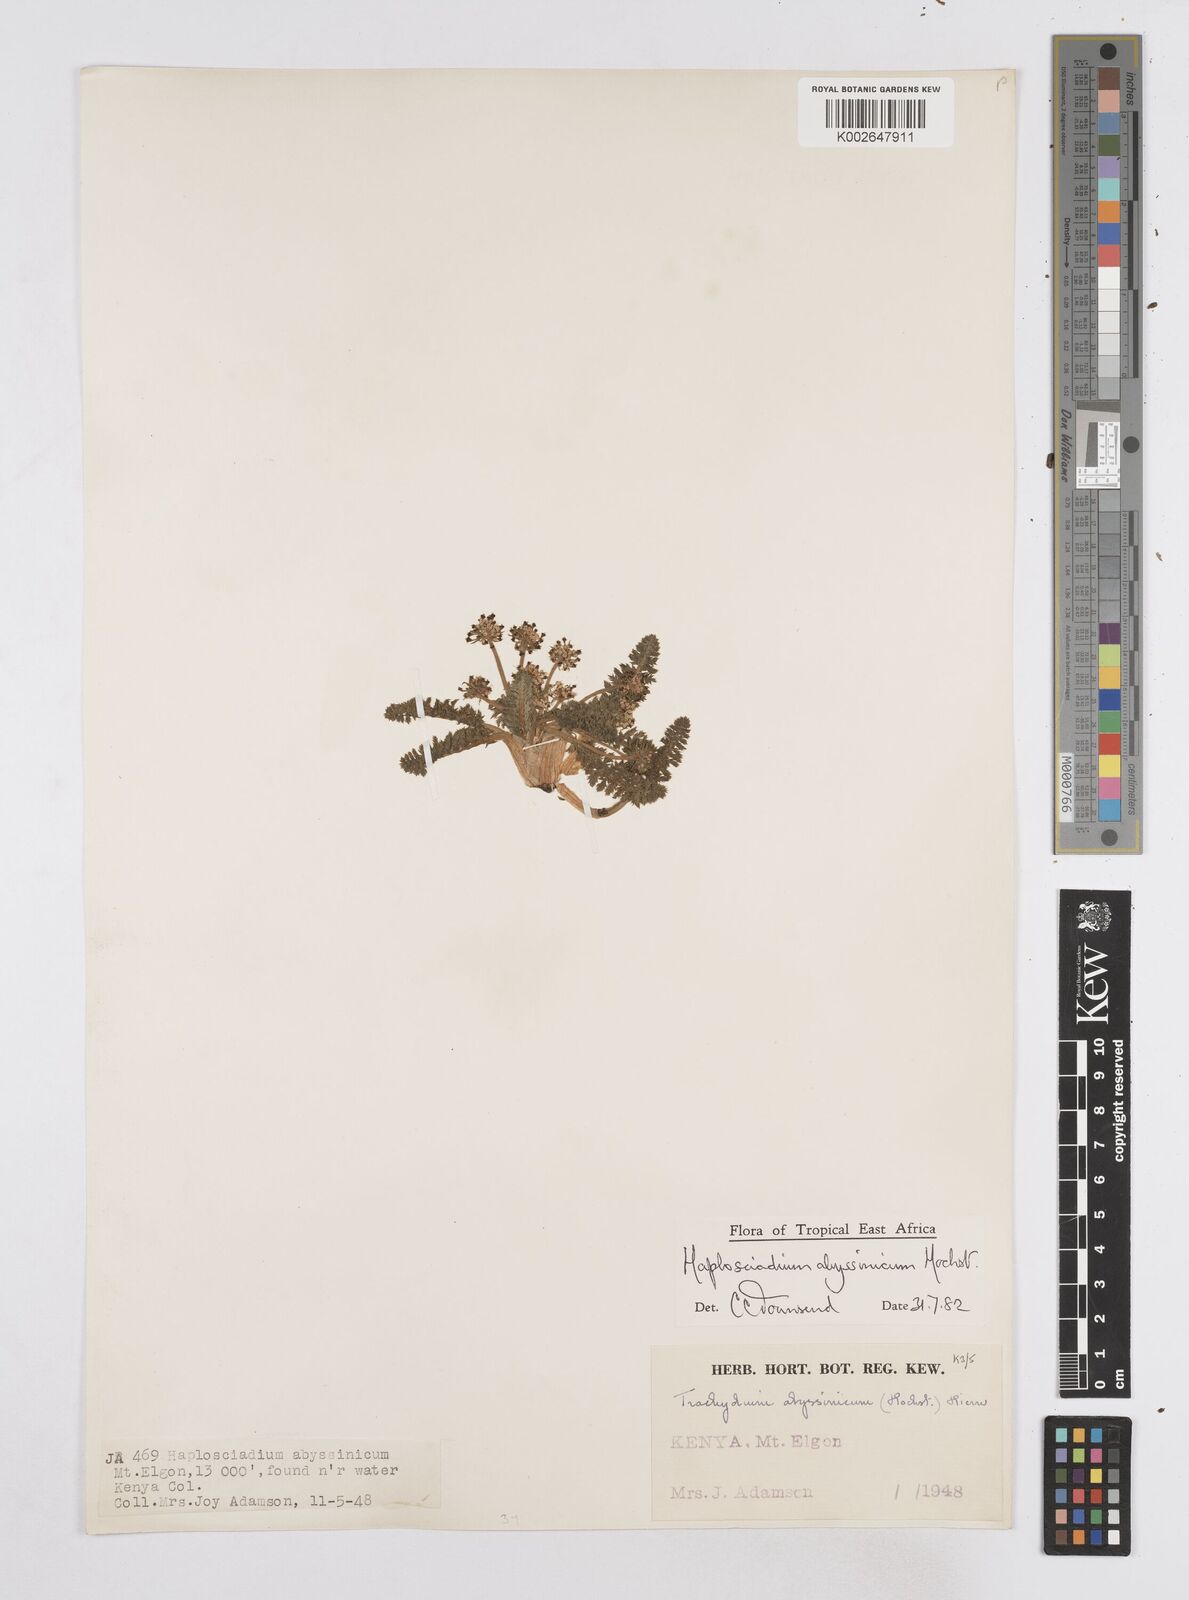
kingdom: Plantae
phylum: Tracheophyta
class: Magnoliopsida
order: Apiales
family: Apiaceae
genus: Haplosciadium
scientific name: Haplosciadium abyssinicum
